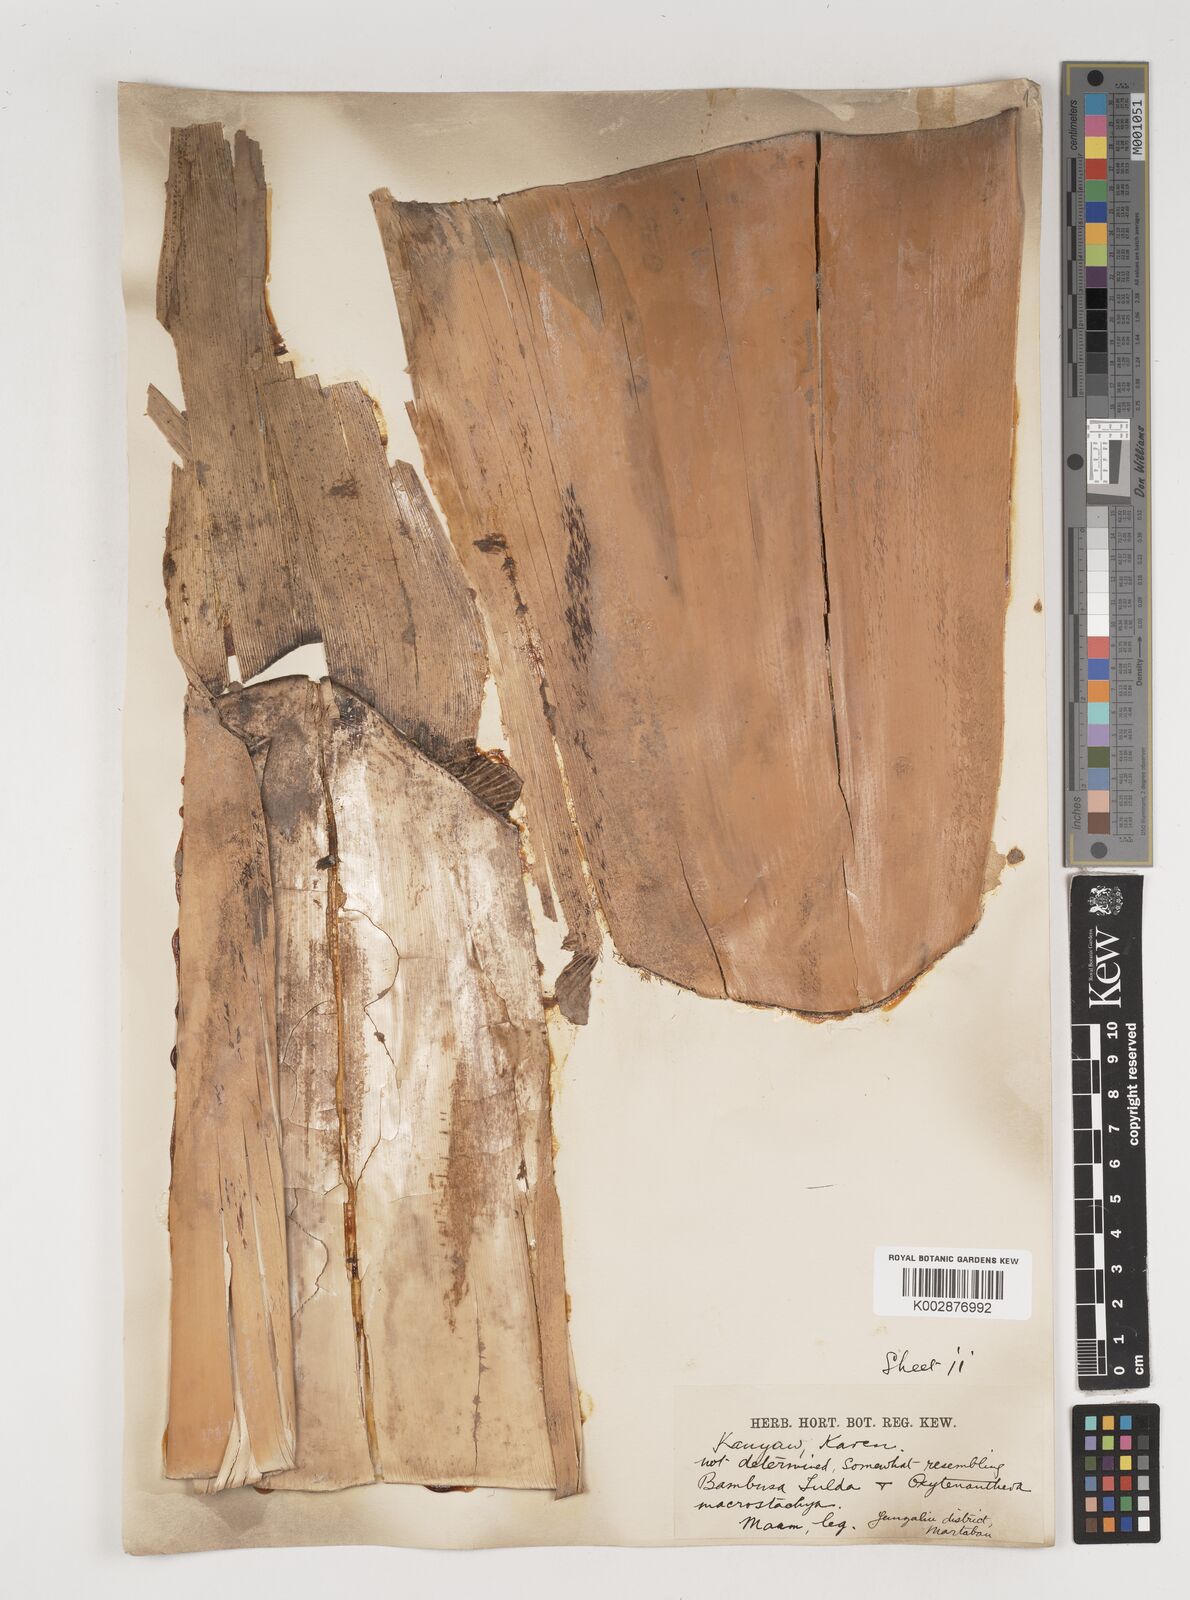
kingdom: Plantae
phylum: Tracheophyta
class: Liliopsida
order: Poales
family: Poaceae
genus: Bambusa
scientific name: Bambusa tulda
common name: Bengal bamboo
